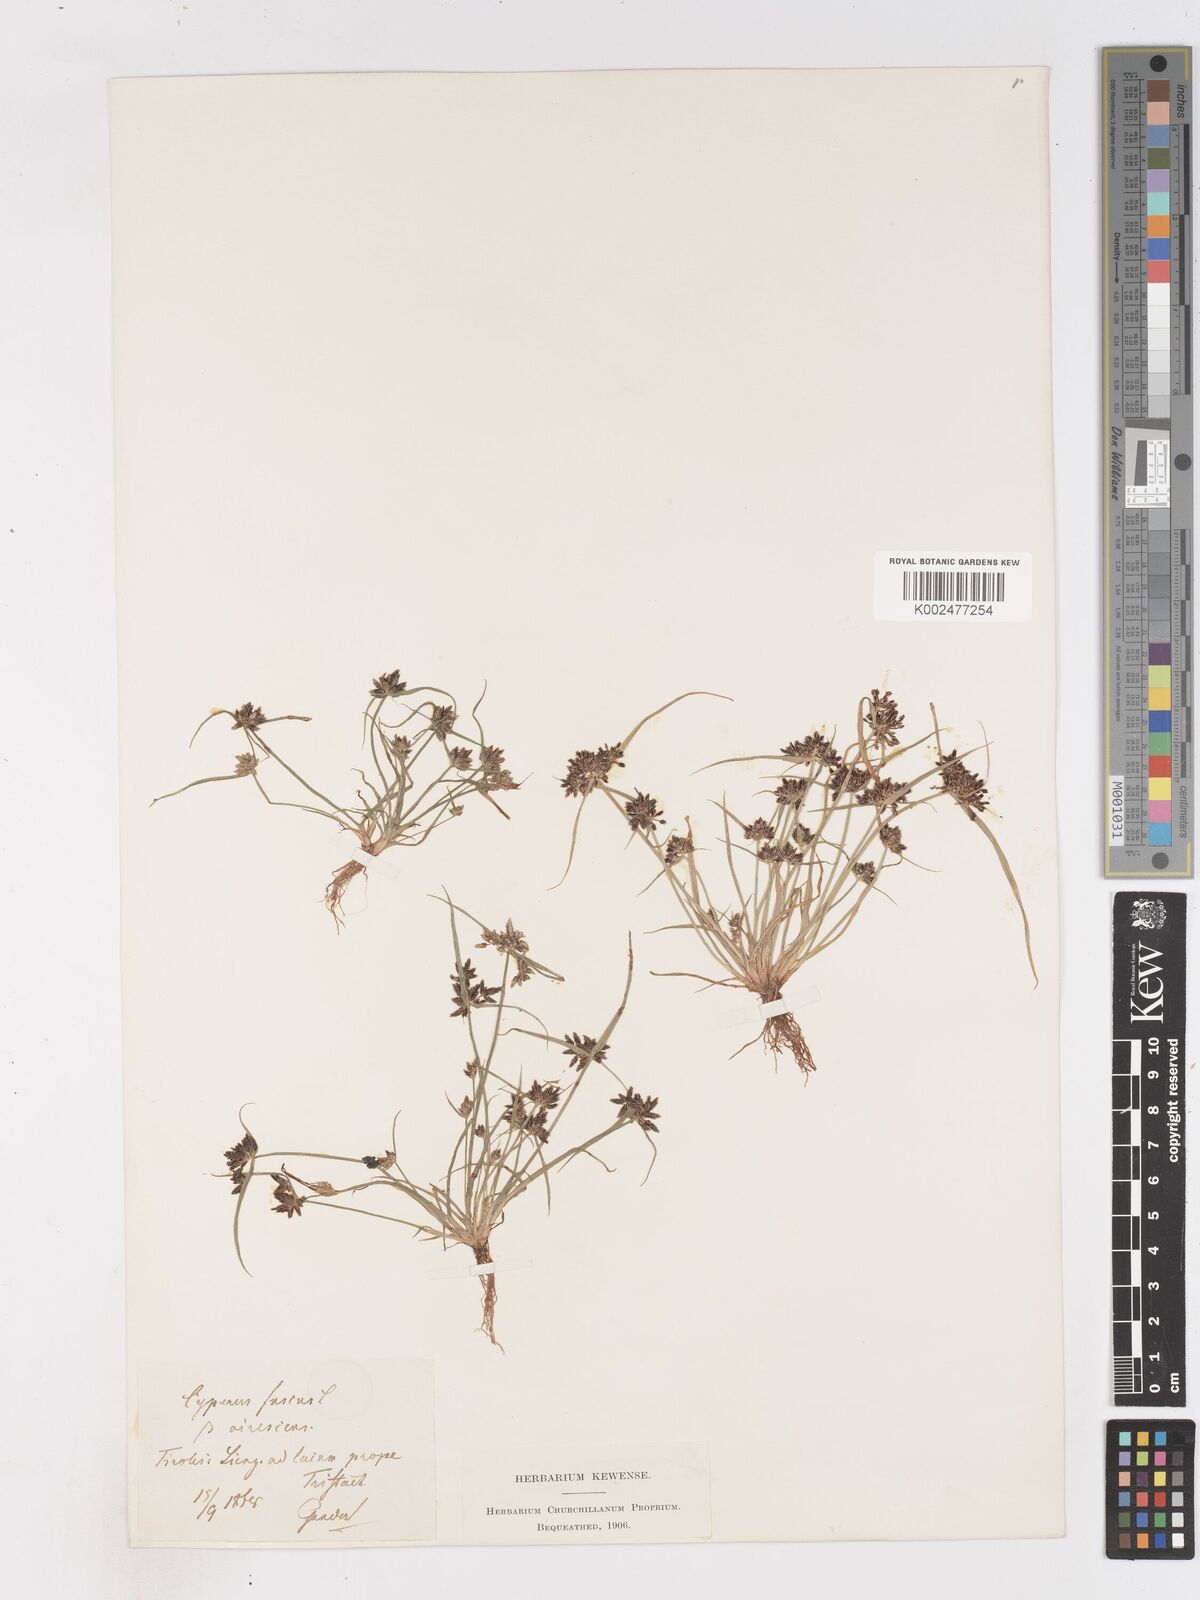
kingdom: Plantae
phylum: Tracheophyta
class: Liliopsida
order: Poales
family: Cyperaceae
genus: Cyperus
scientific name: Cyperus fuscus
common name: Brown galingale
